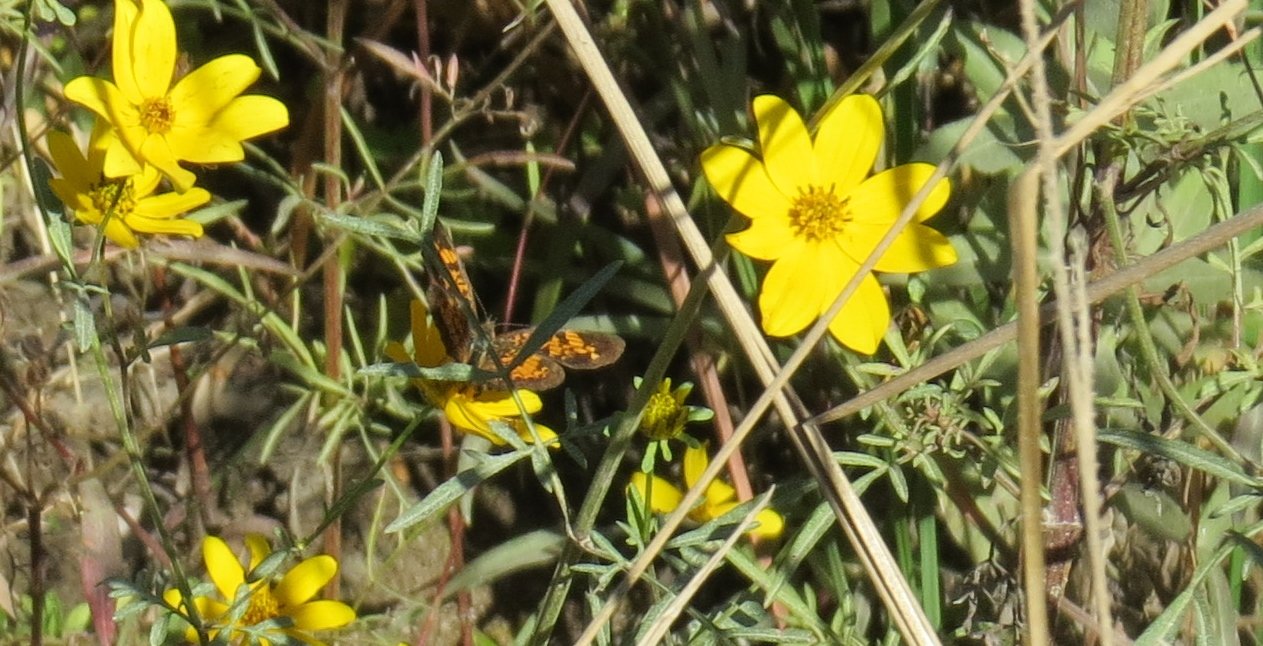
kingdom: Animalia
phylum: Arthropoda
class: Insecta
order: Lepidoptera
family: Nymphalidae
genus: Phyciodes
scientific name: Phyciodes tharos
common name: Pearl Crescent
